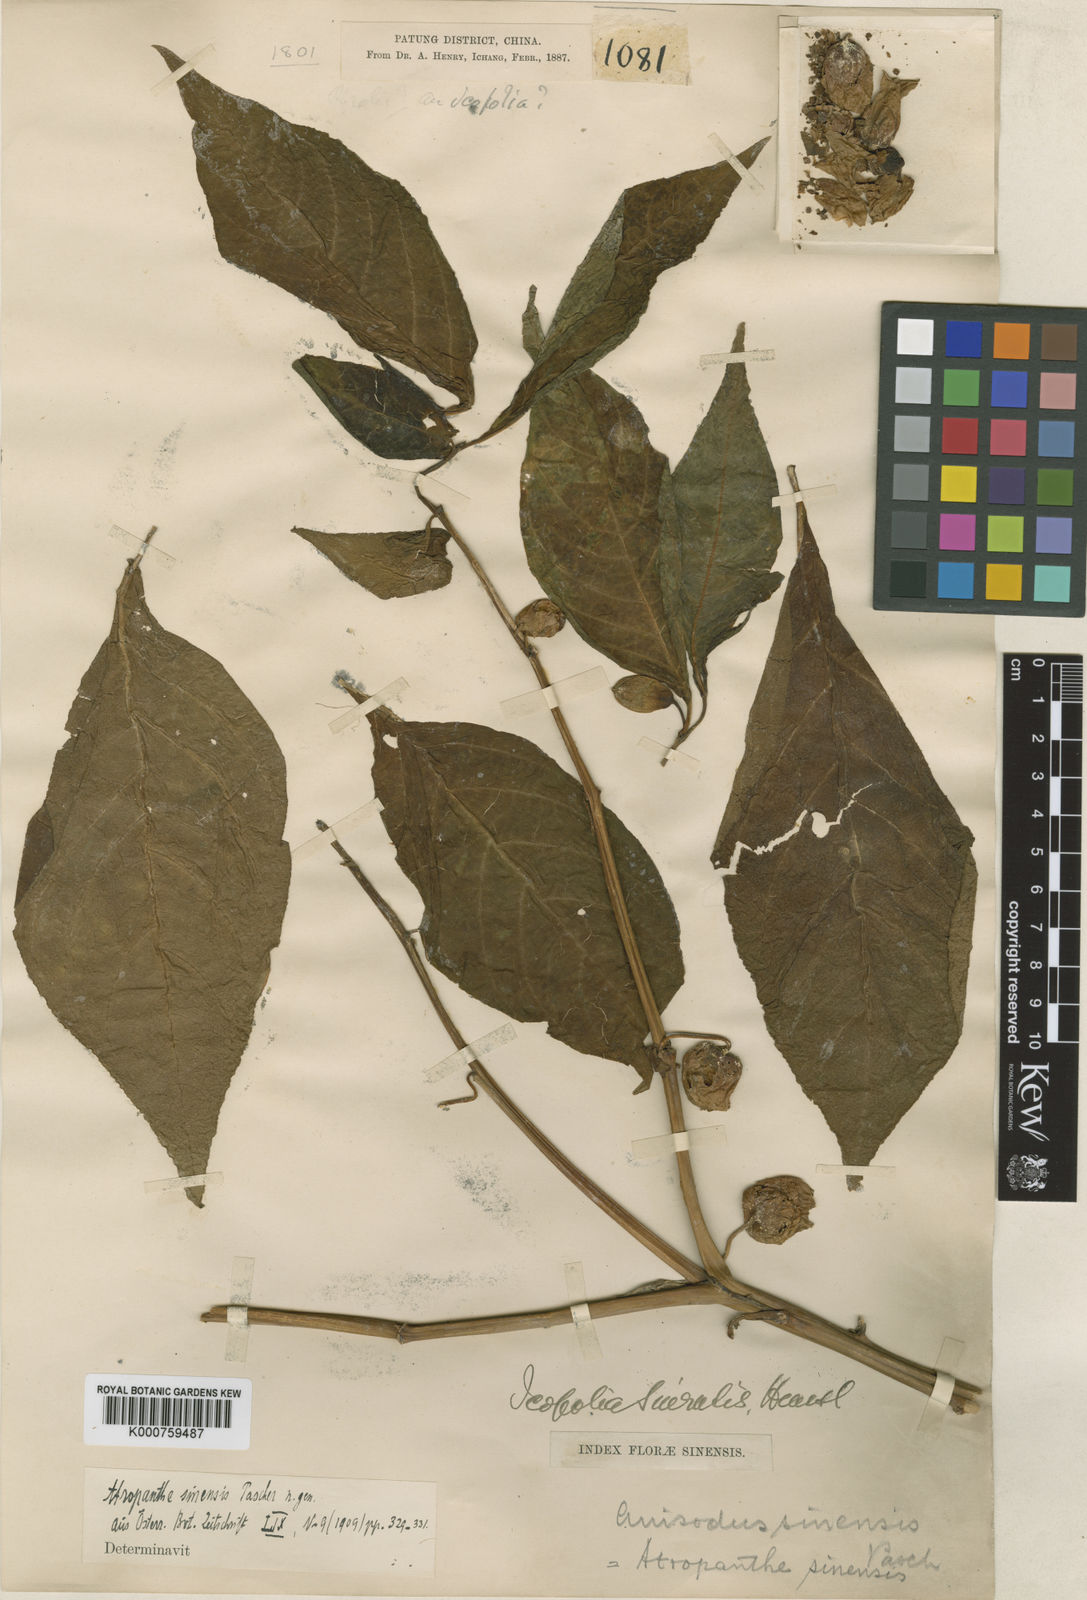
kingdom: Plantae
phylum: Tracheophyta
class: Magnoliopsida
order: Solanales
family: Solanaceae
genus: Atropanthe
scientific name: Atropanthe sinensis
